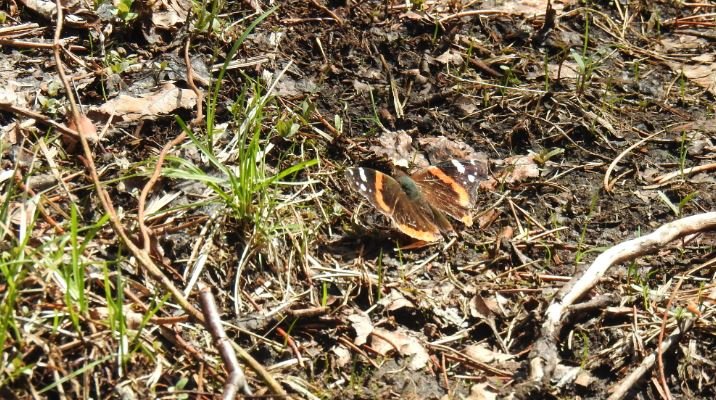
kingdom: Animalia
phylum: Arthropoda
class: Insecta
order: Lepidoptera
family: Nymphalidae
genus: Vanessa
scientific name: Vanessa atalanta
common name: Red Admiral
